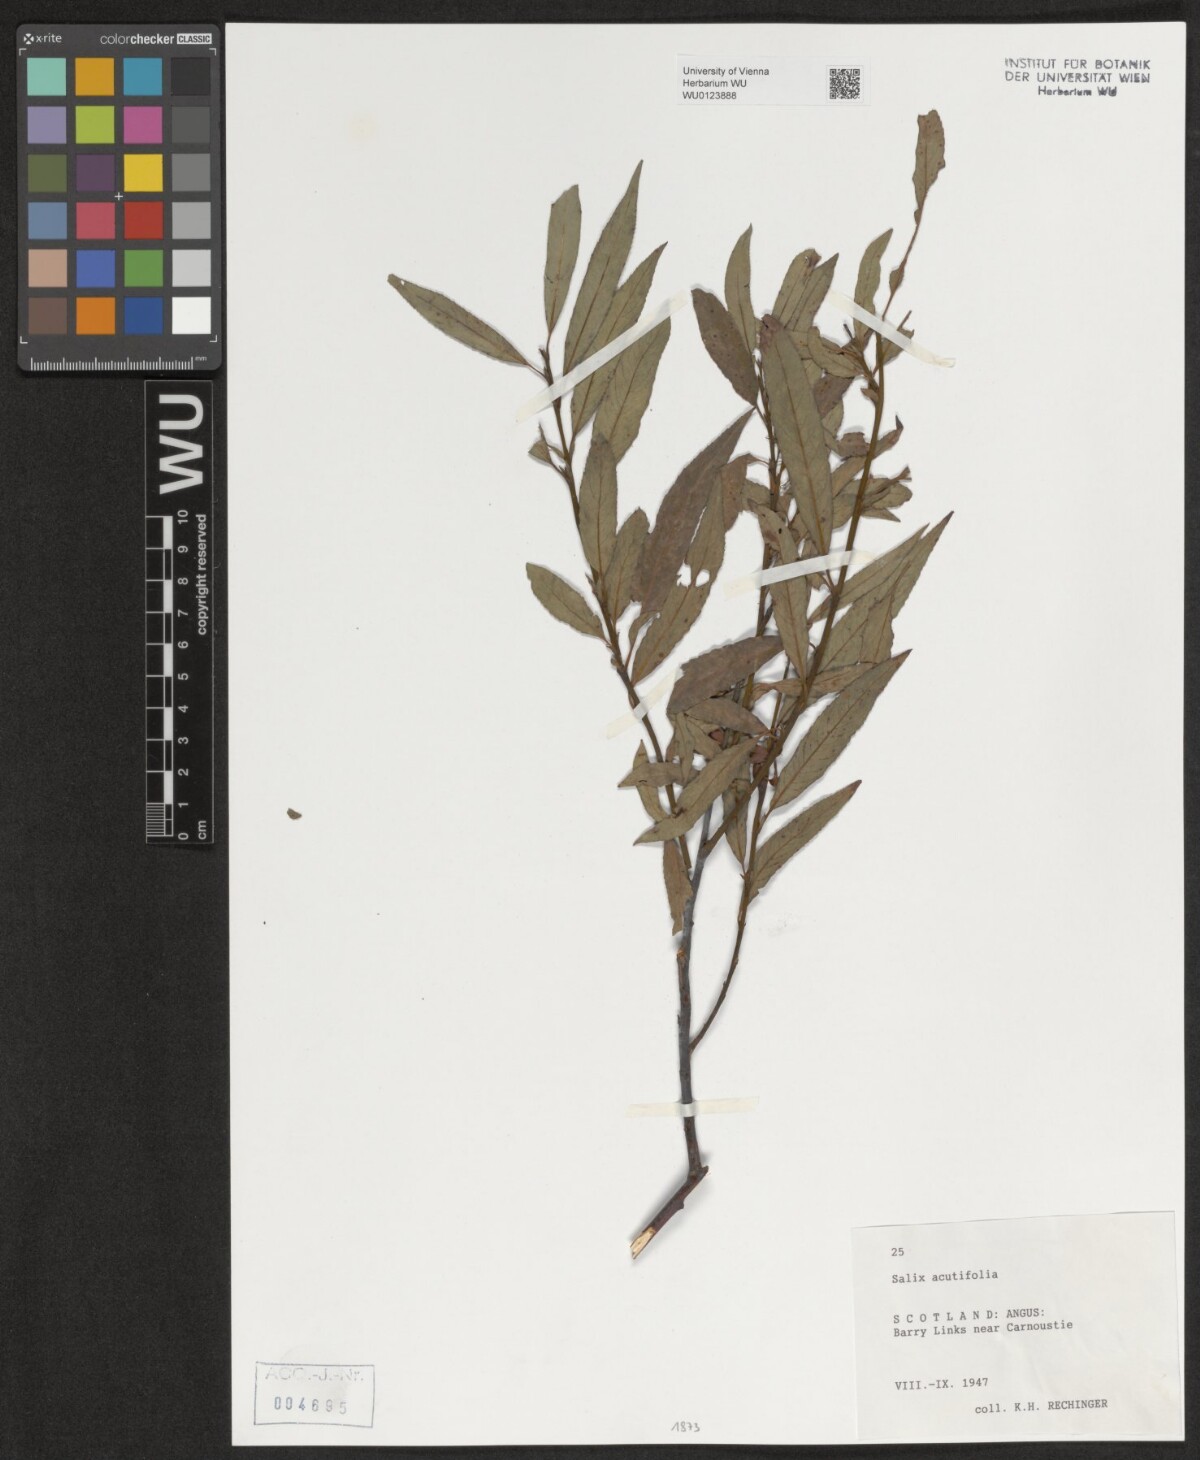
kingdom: Plantae
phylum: Tracheophyta
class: Magnoliopsida
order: Malpighiales
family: Salicaceae
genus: Salix
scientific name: Salix acutifolia
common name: Siberian violet-willow
